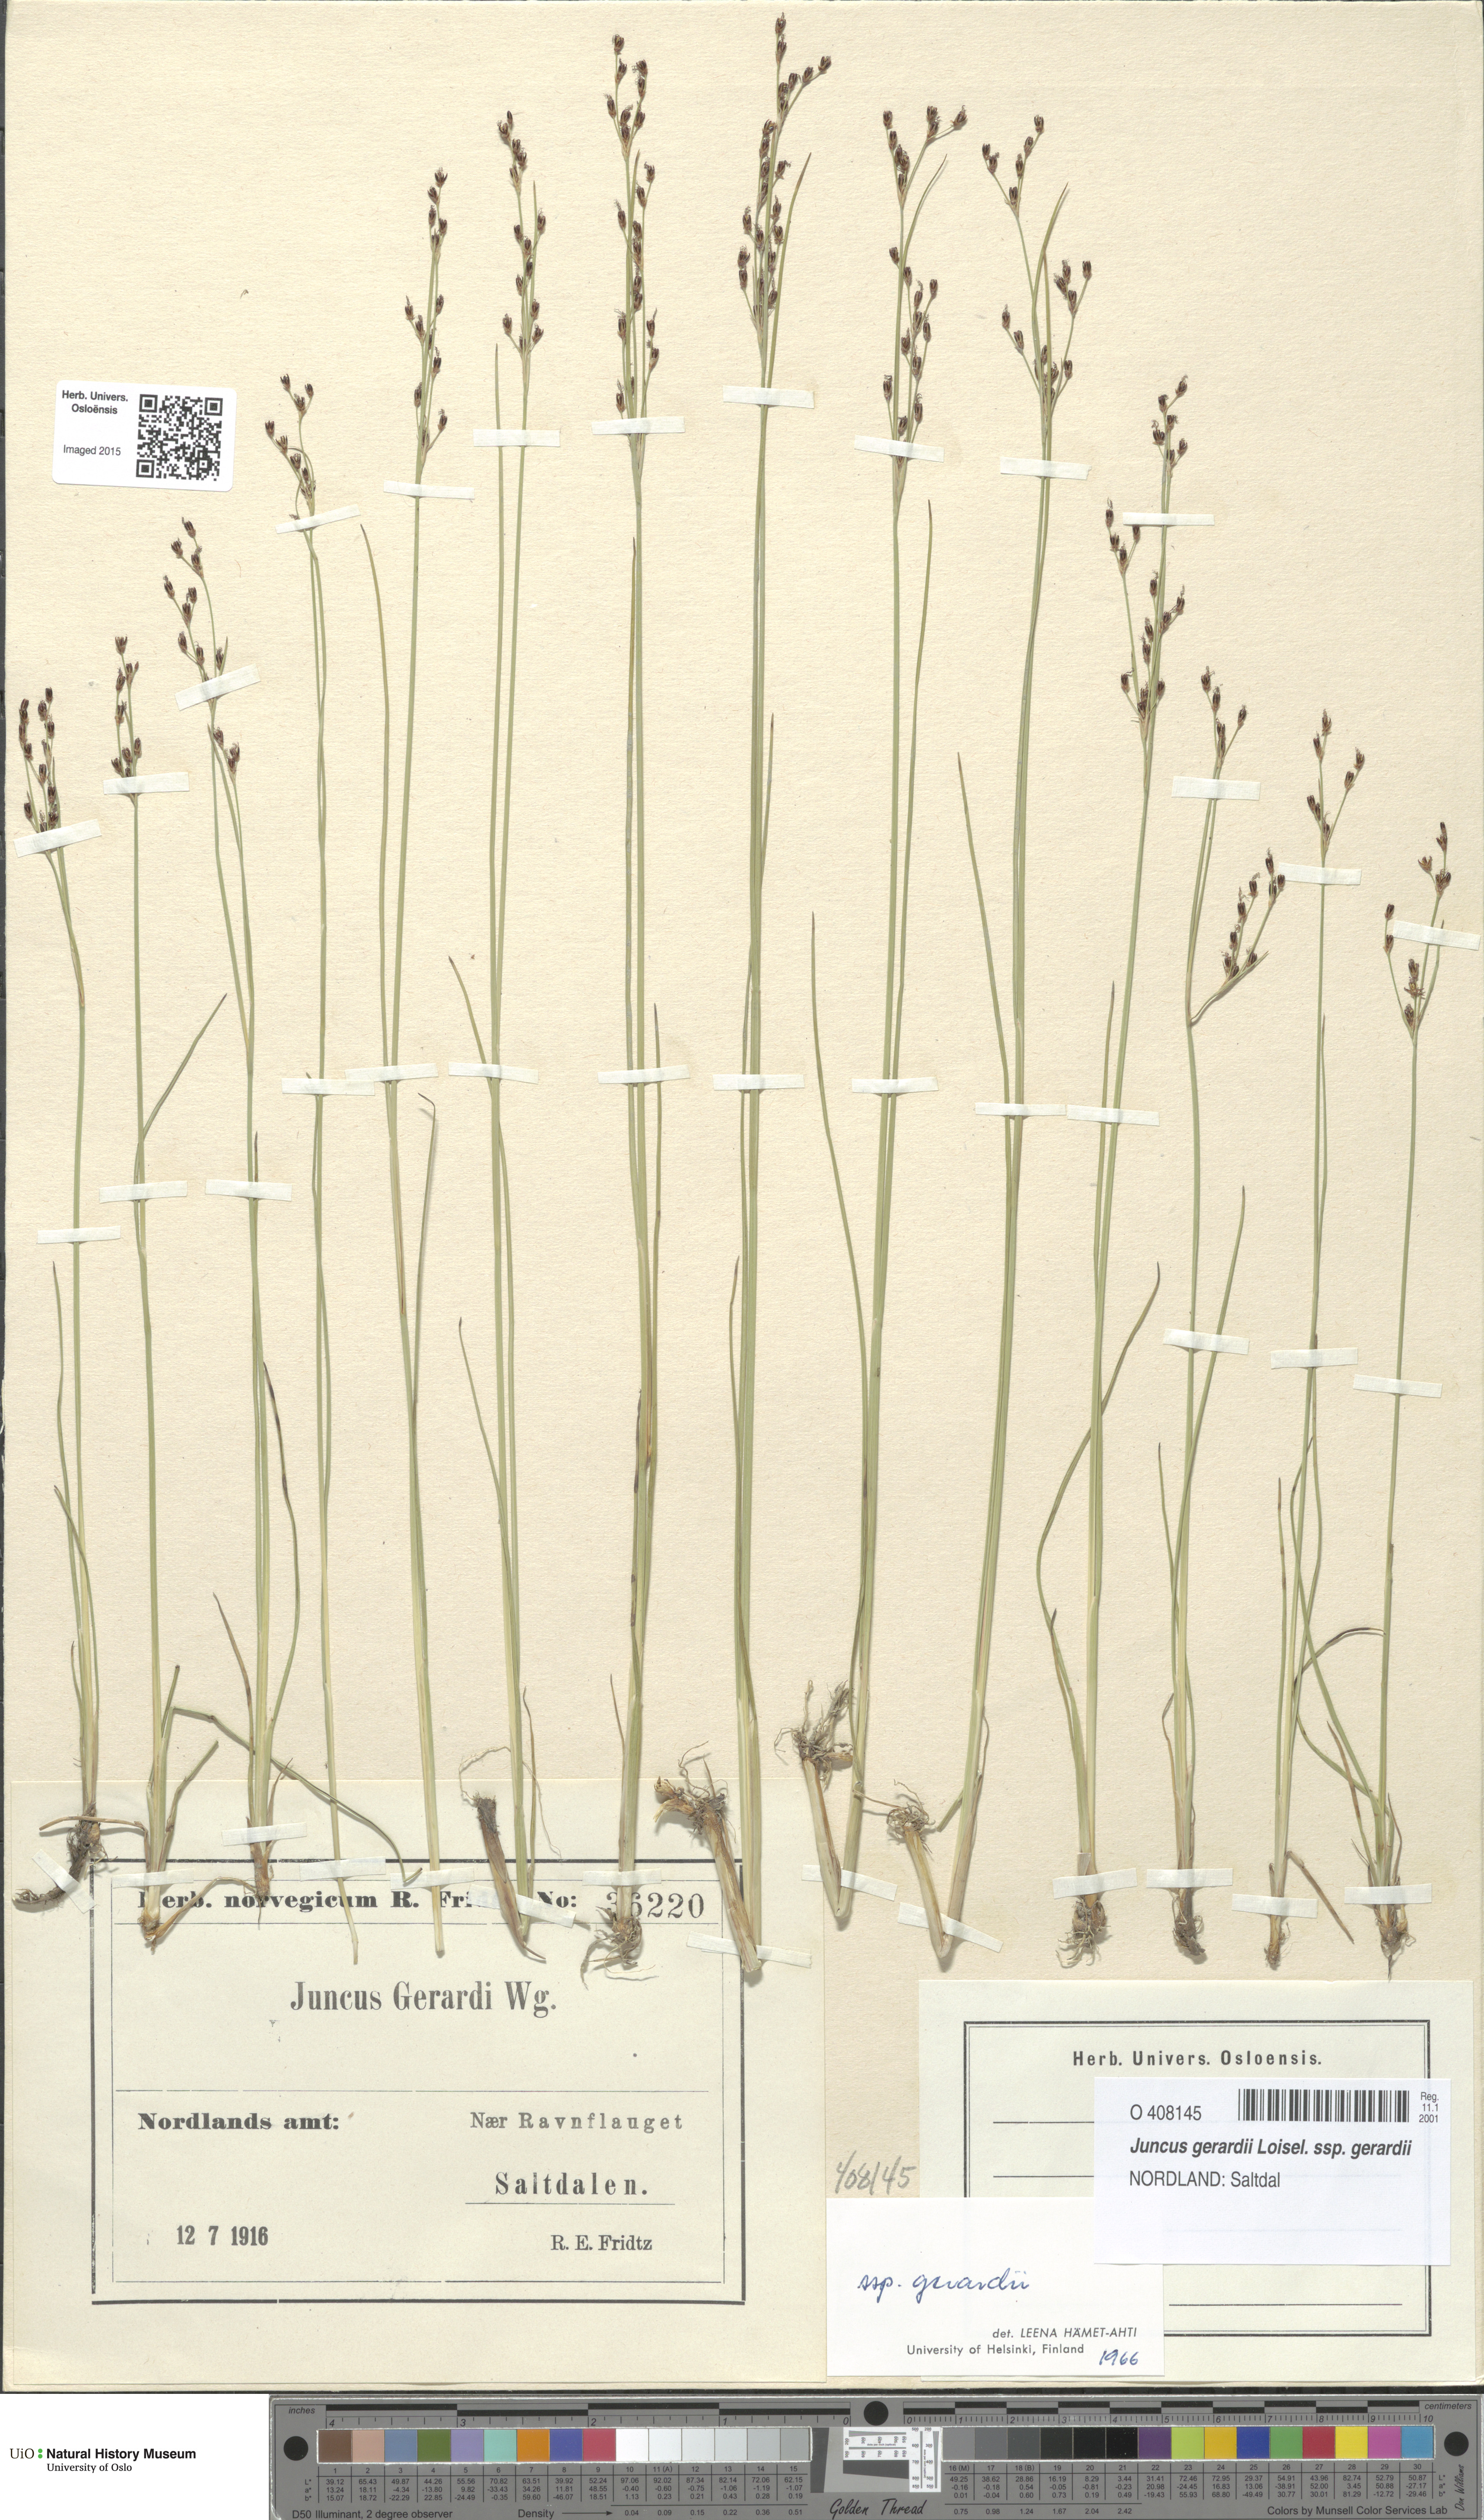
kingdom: Plantae
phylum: Tracheophyta
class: Liliopsida
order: Poales
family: Juncaceae
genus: Juncus
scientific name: Juncus gerardi
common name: Saltmarsh rush
